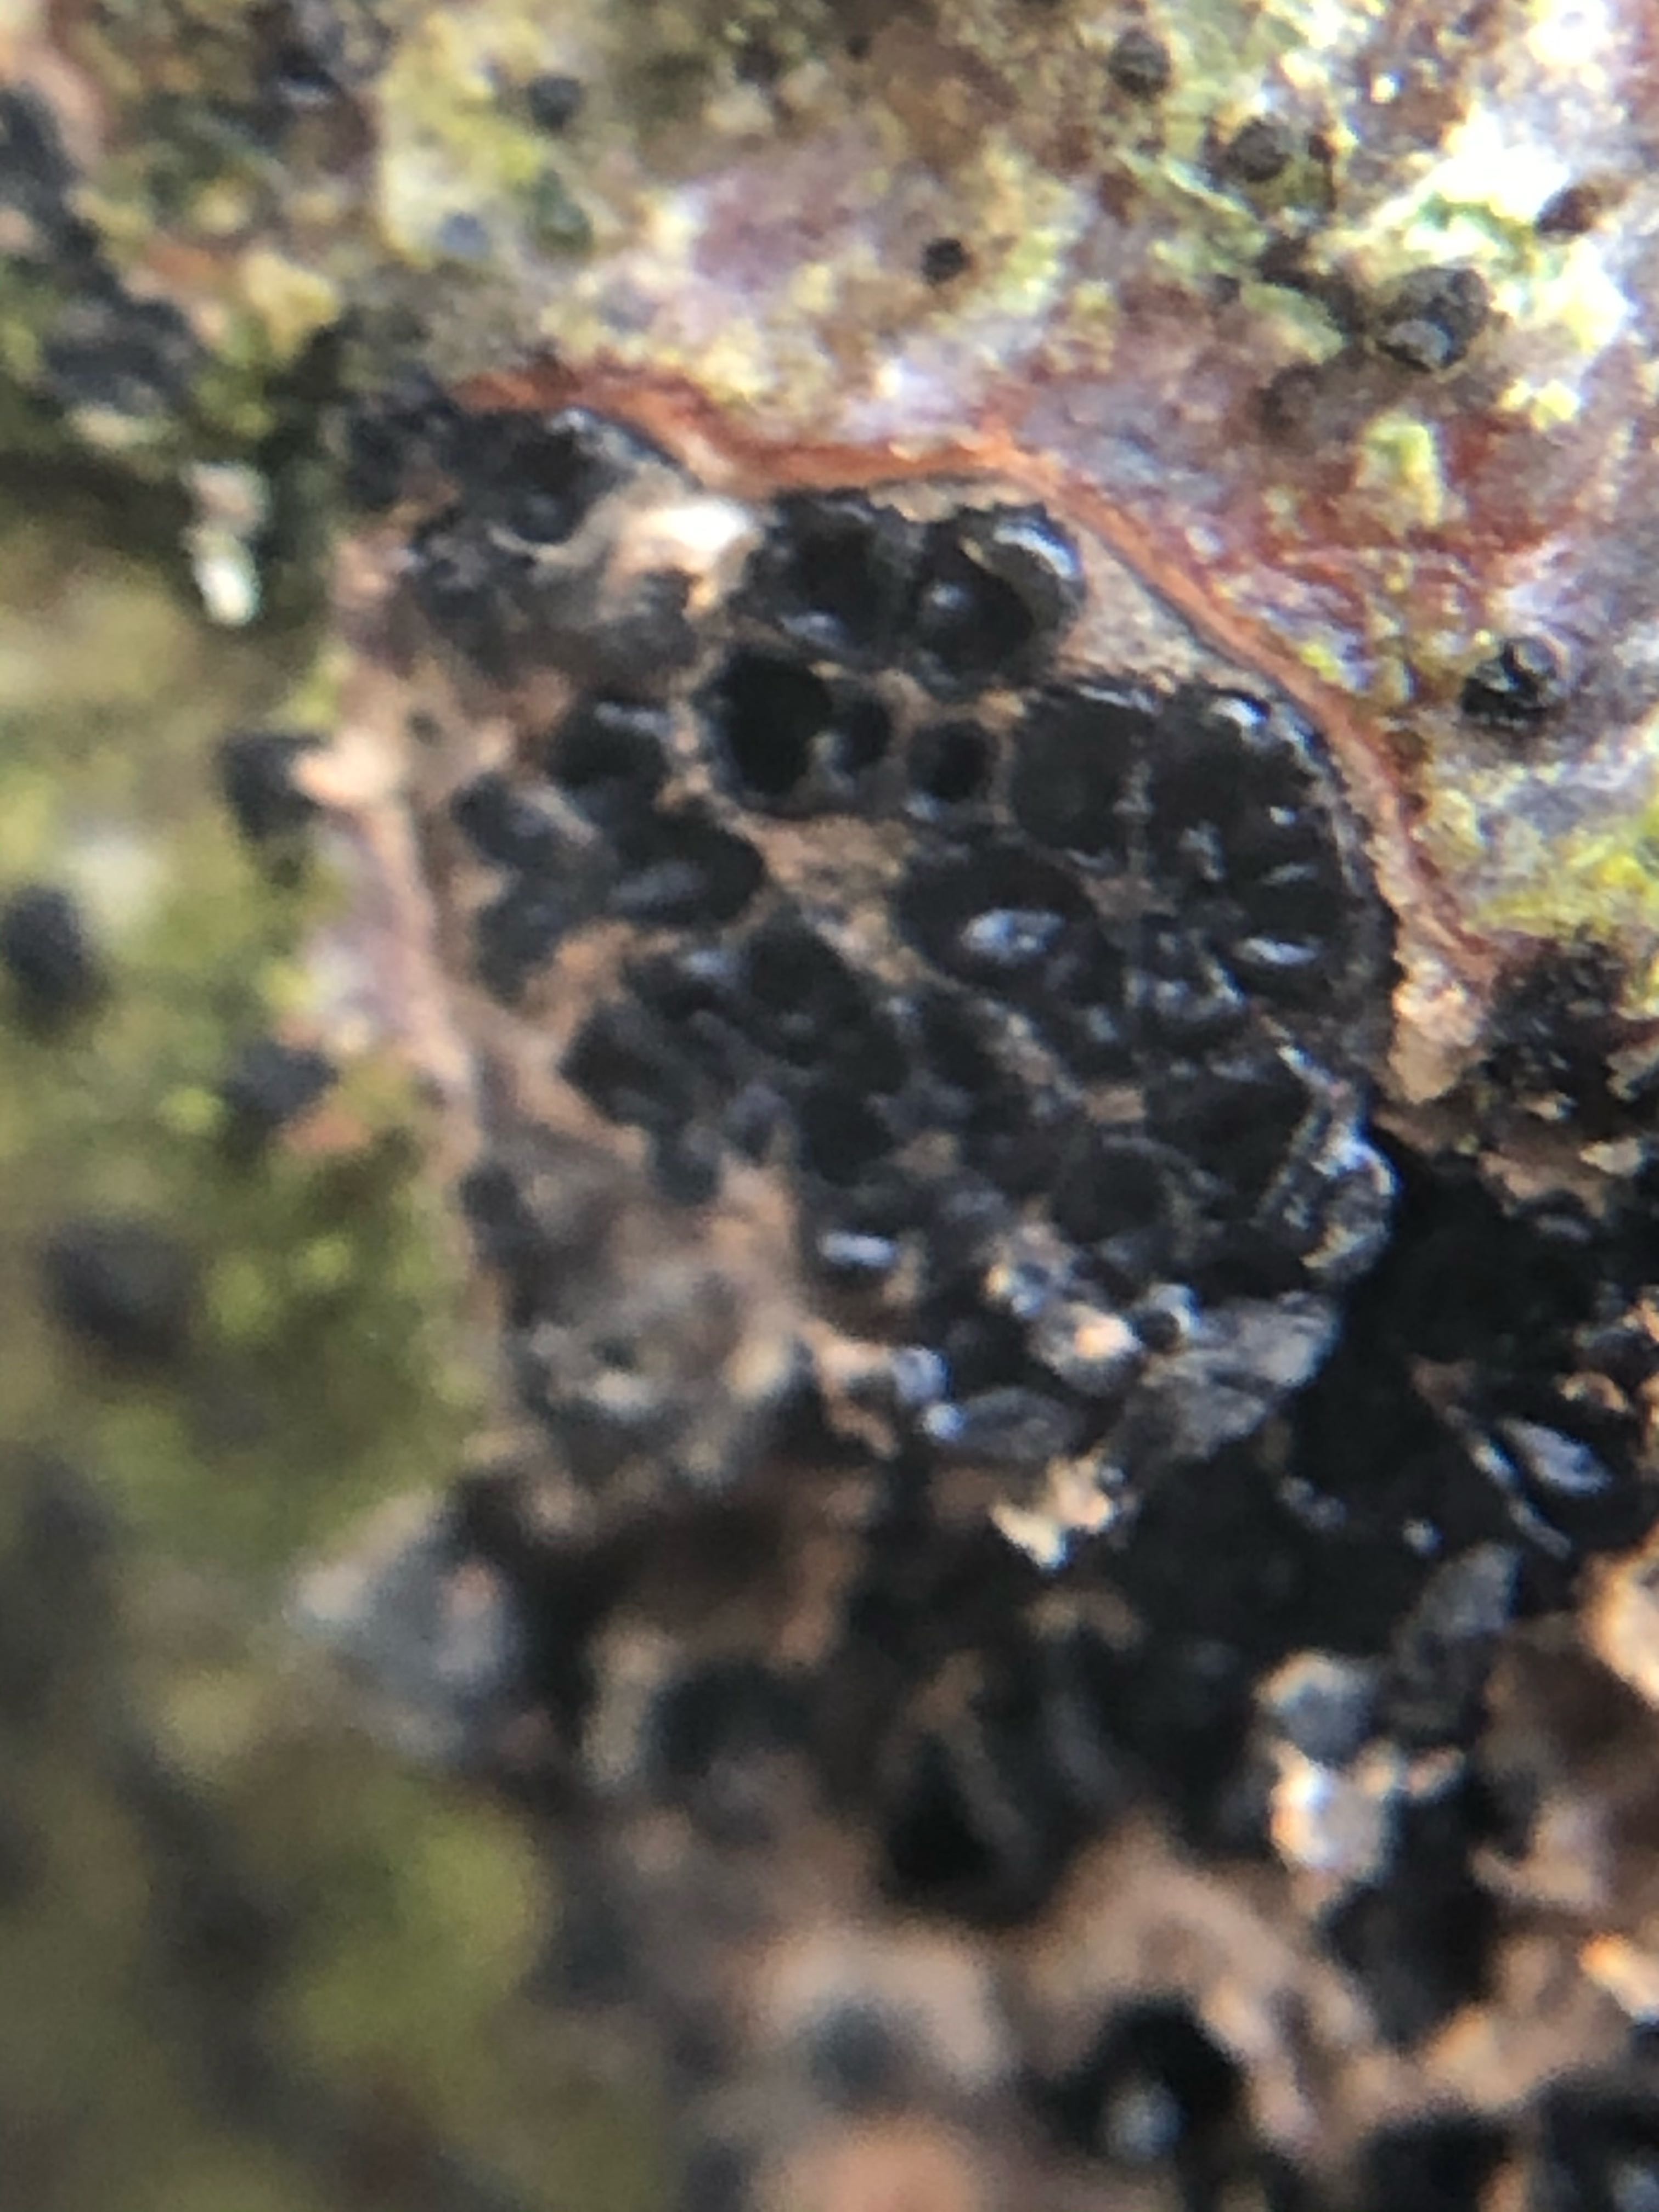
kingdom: Fungi
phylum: Ascomycota
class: Sordariomycetes
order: Xylariales
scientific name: Xylariales
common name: stødsvampordenen
